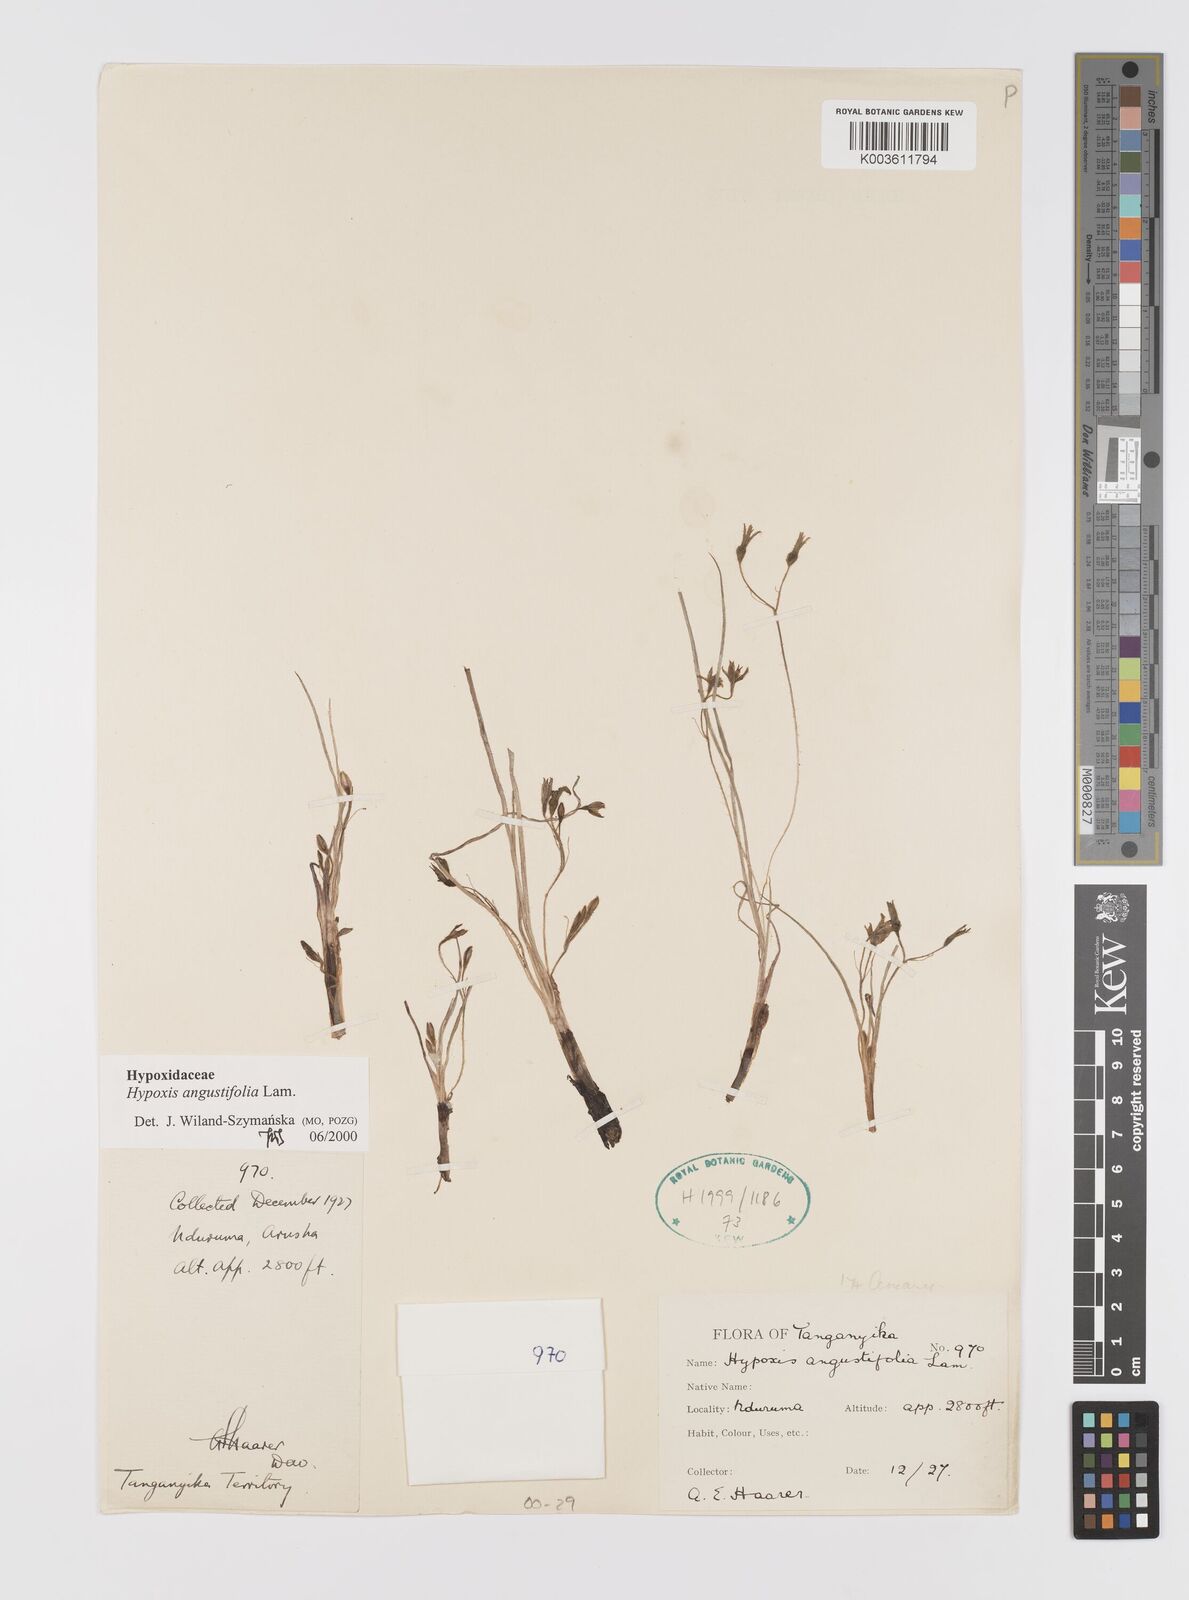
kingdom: Plantae
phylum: Tracheophyta
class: Liliopsida
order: Asparagales
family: Hypoxidaceae
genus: Hypoxis
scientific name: Hypoxis angustifolia
